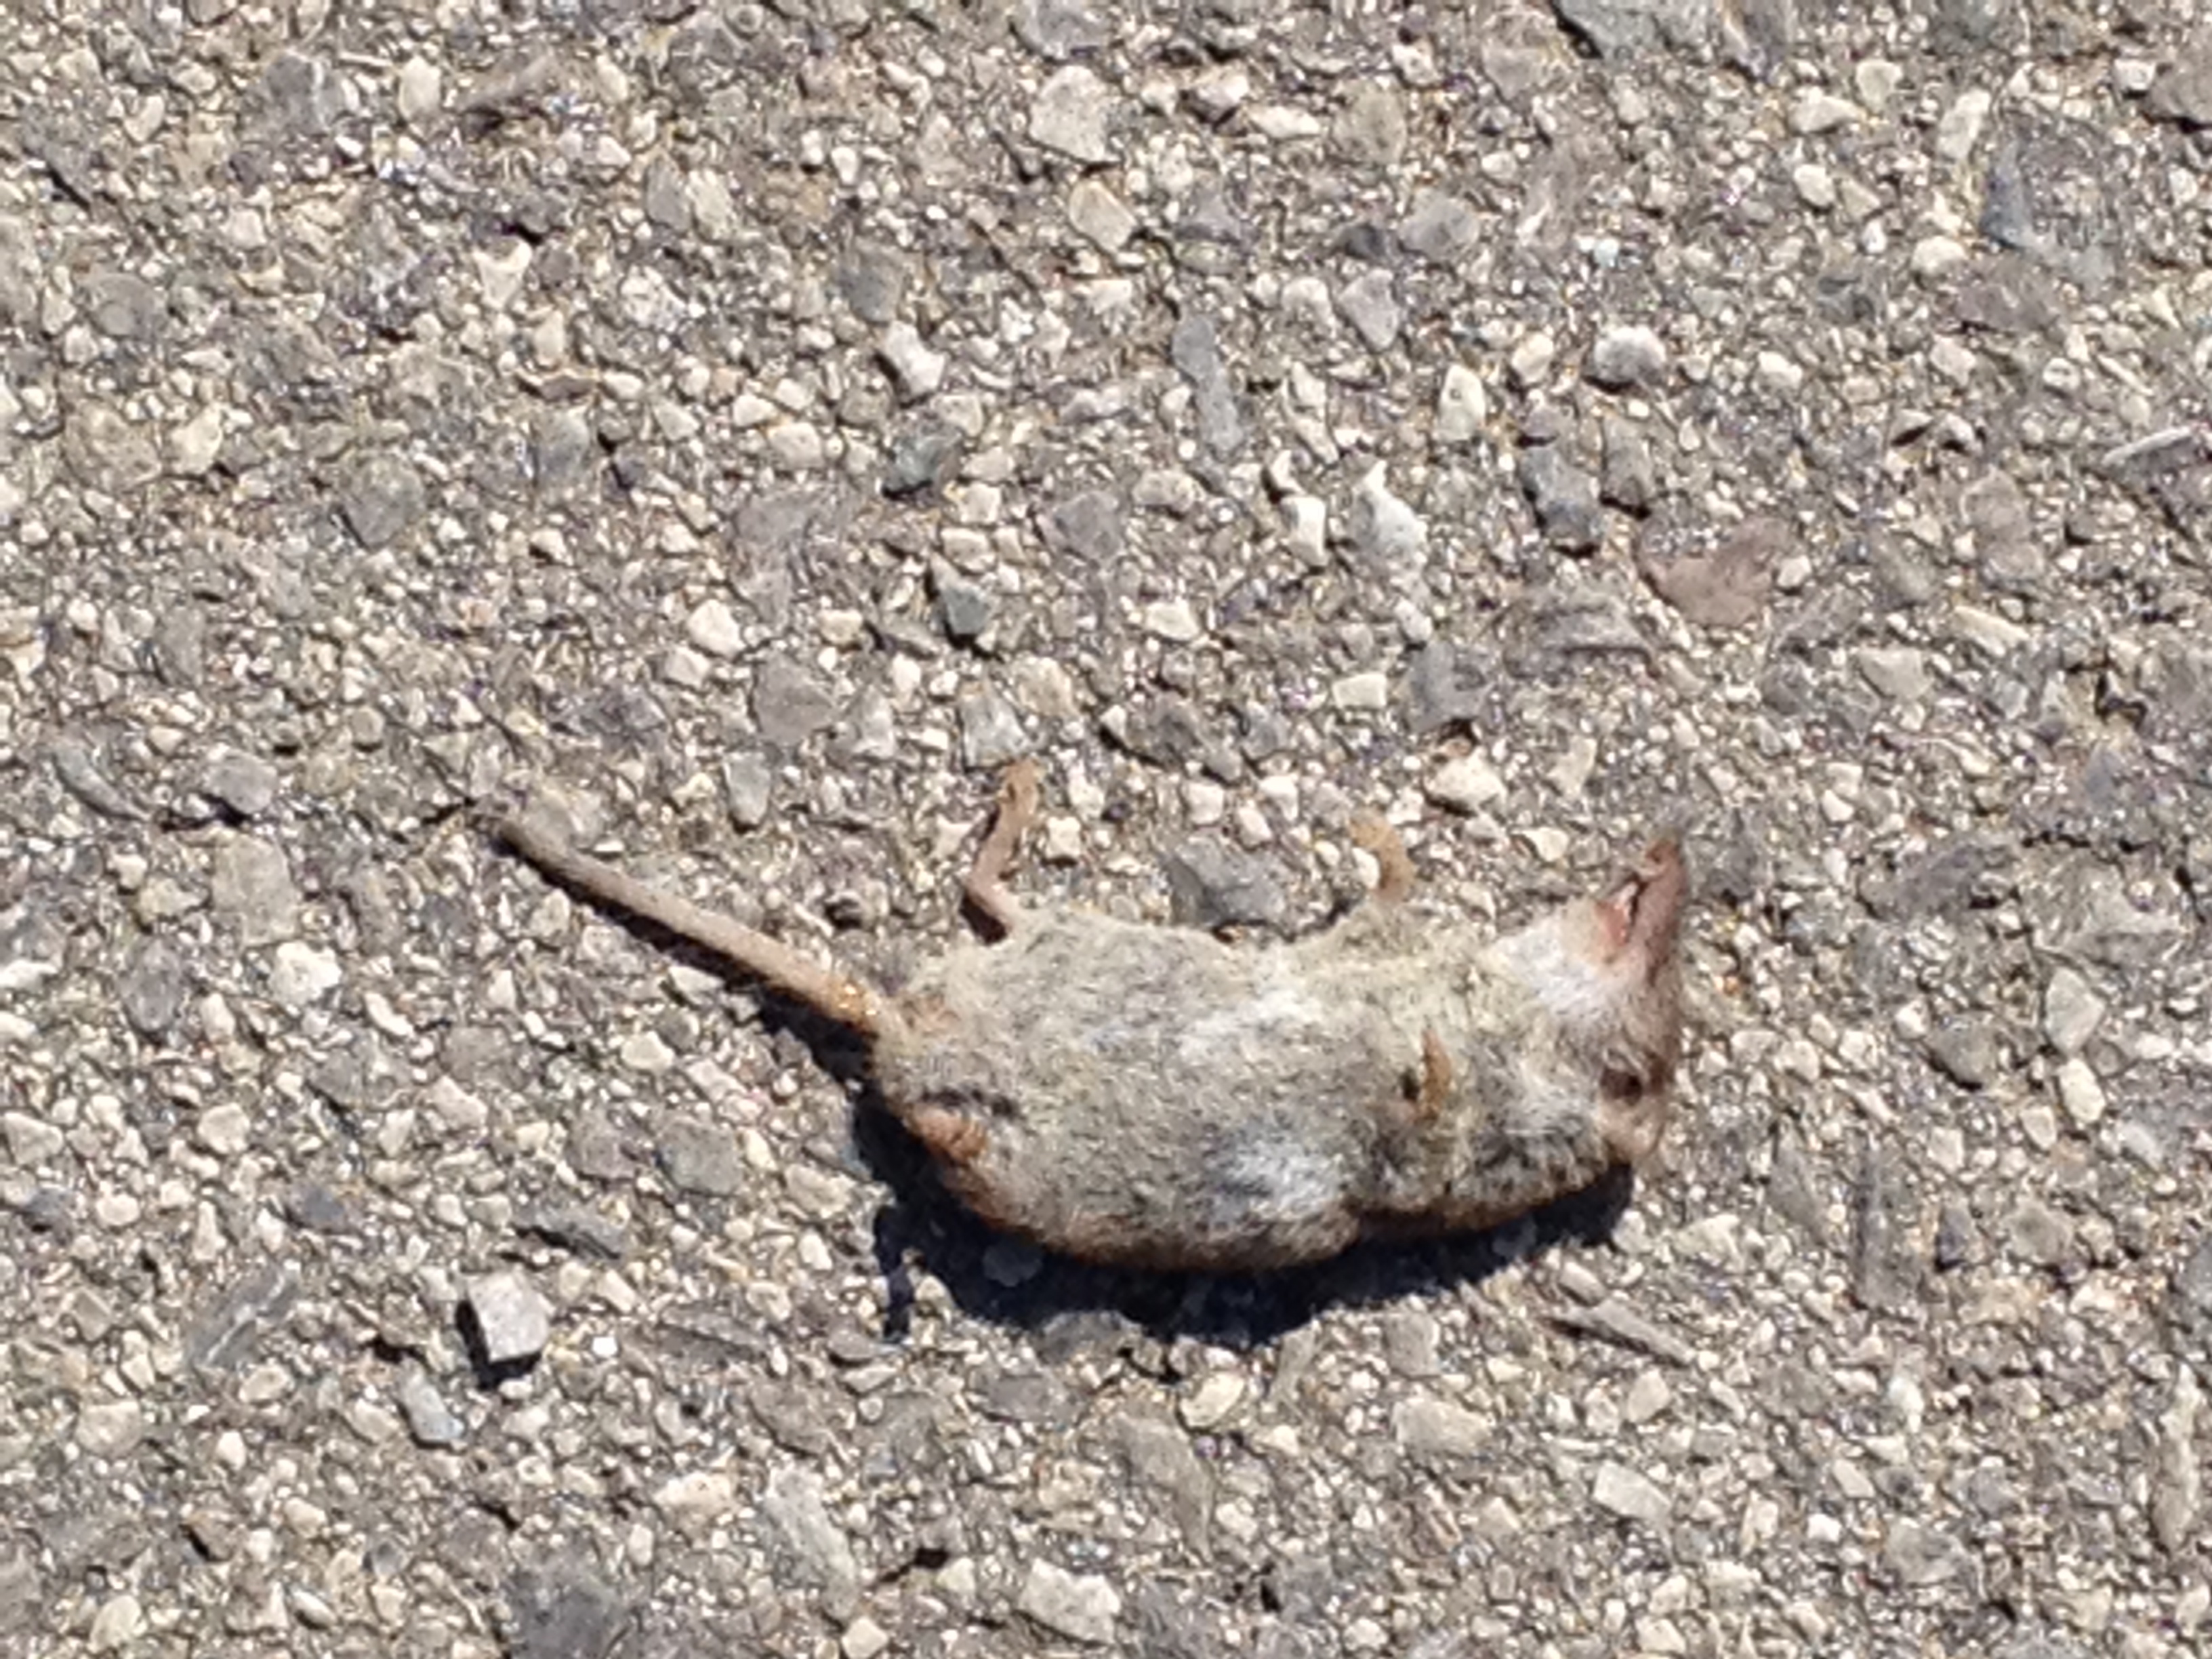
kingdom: Animalia
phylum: Chordata
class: Mammalia
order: Soricomorpha
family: Soricidae
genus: Crocidura
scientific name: Crocidura
